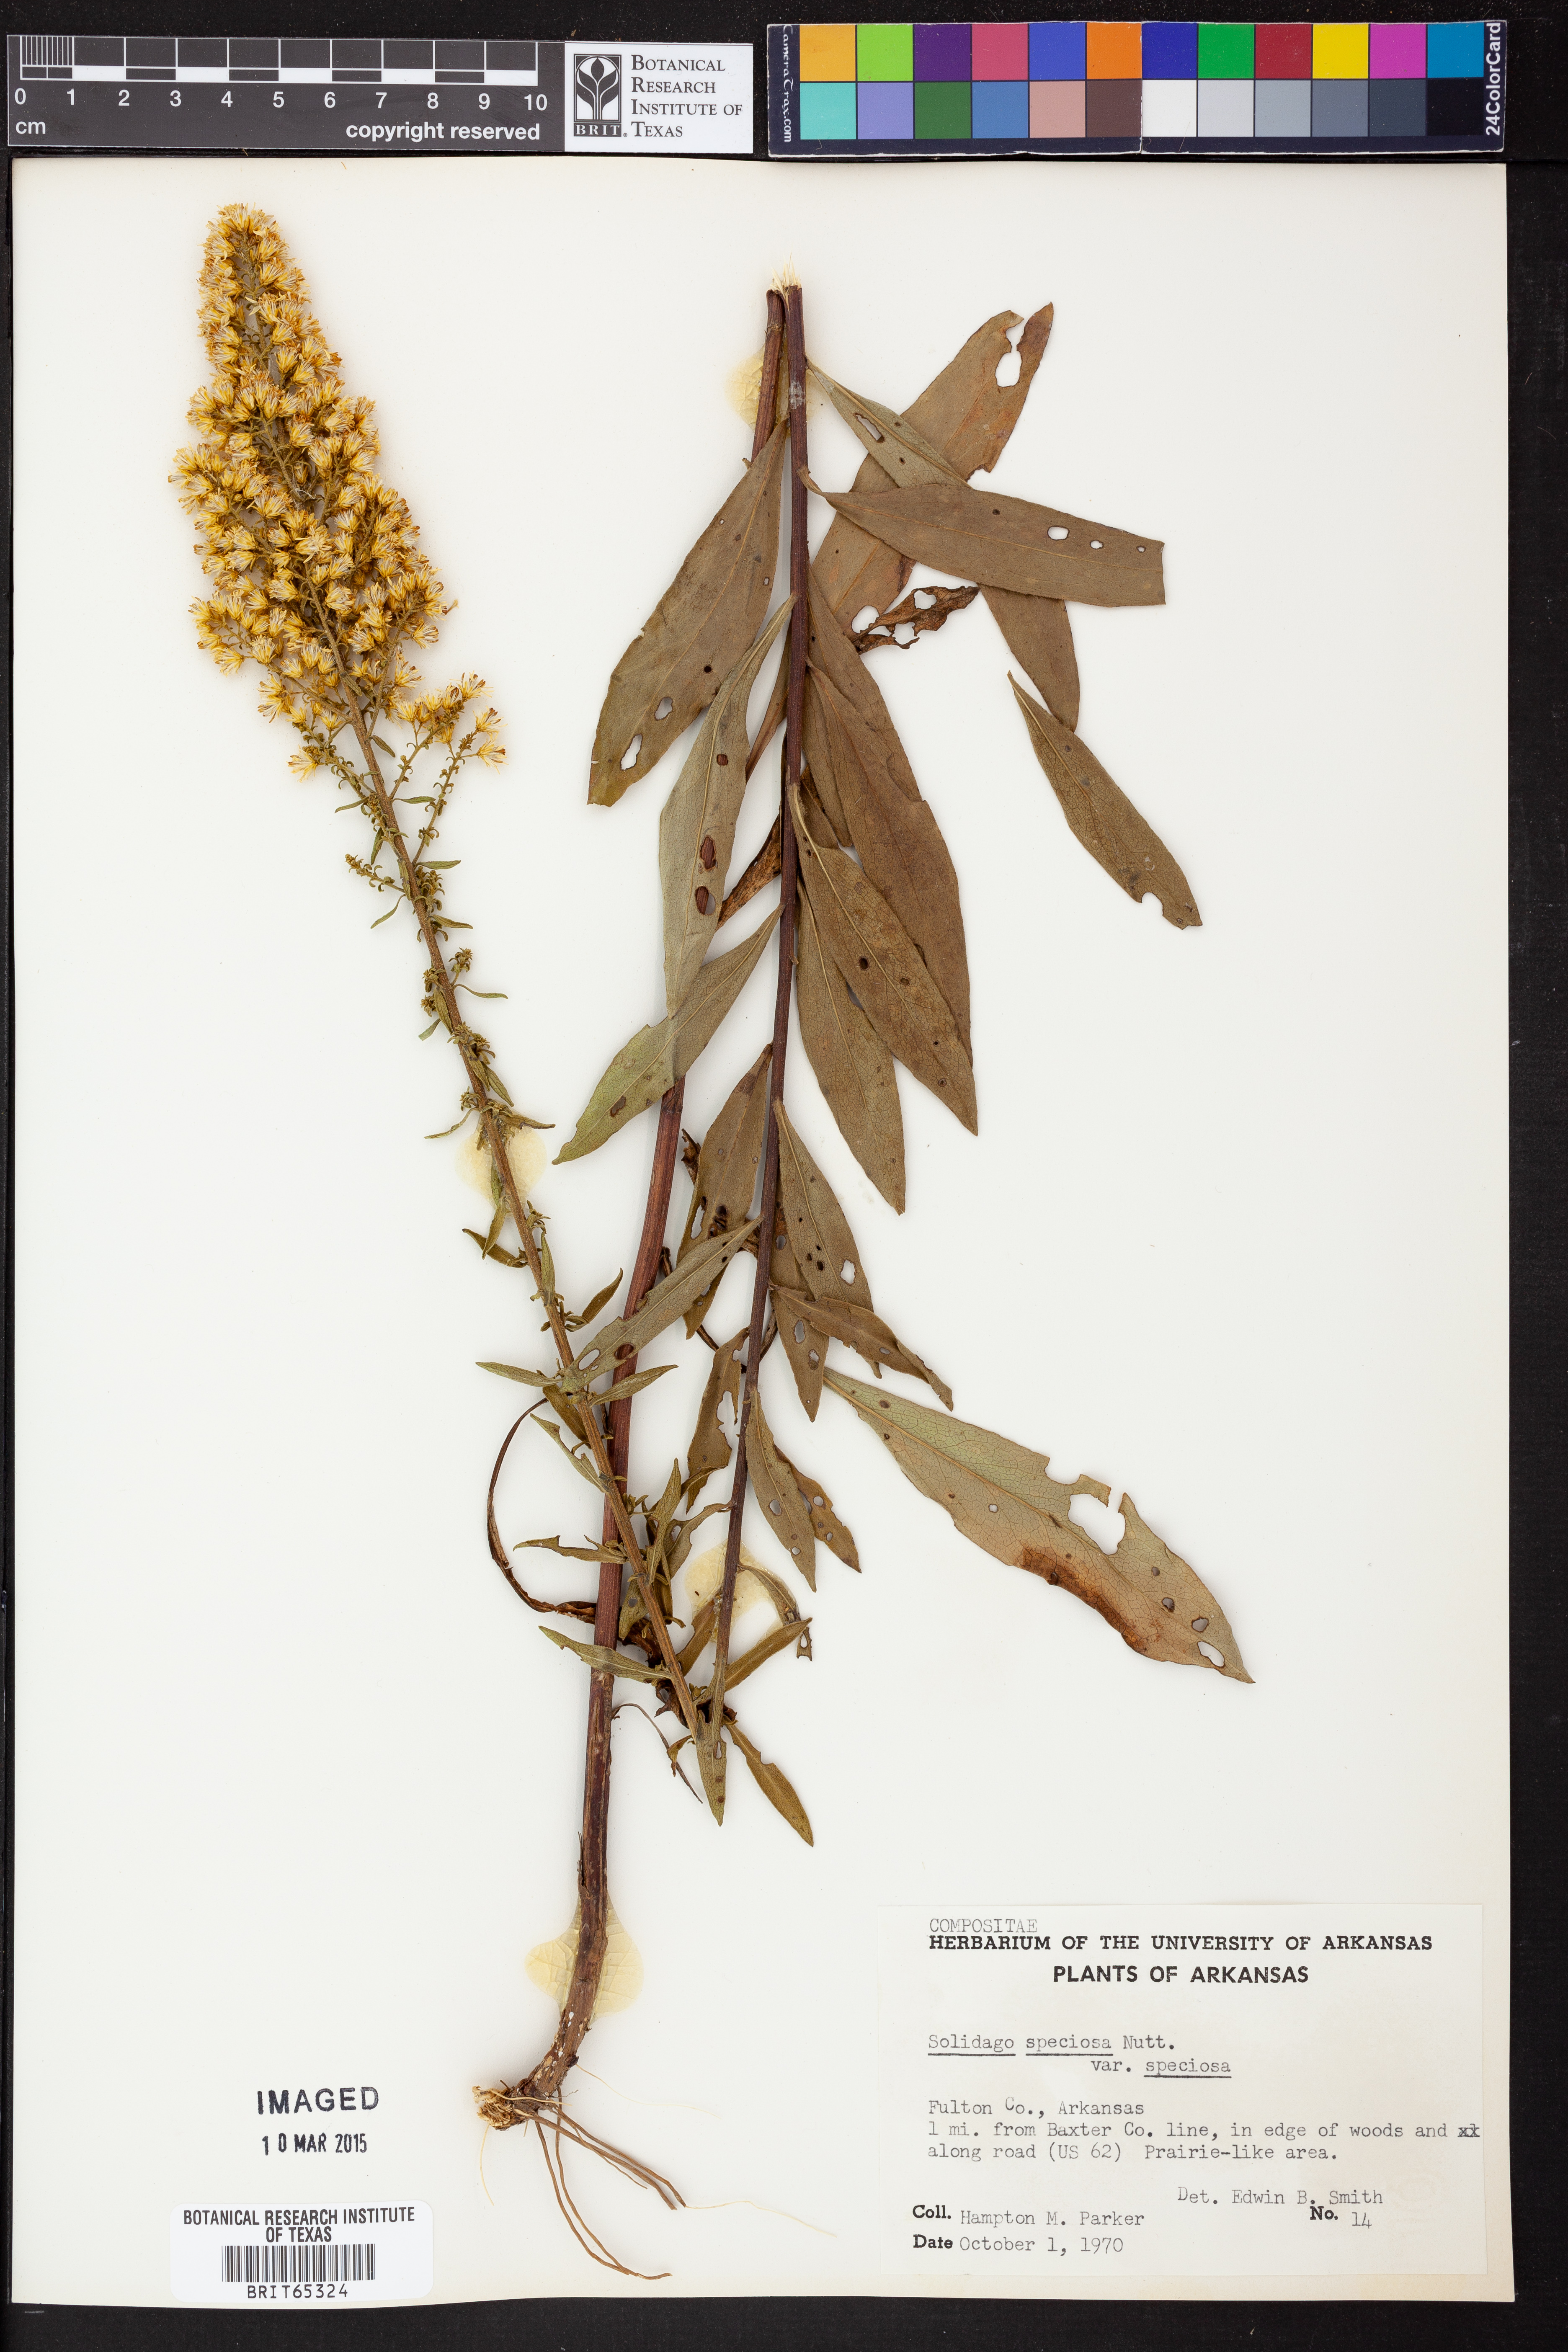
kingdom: Plantae
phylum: Tracheophyta
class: Magnoliopsida
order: Asterales
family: Asteraceae
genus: Solidago
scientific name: Solidago speciosa
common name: Showy goldenrod
